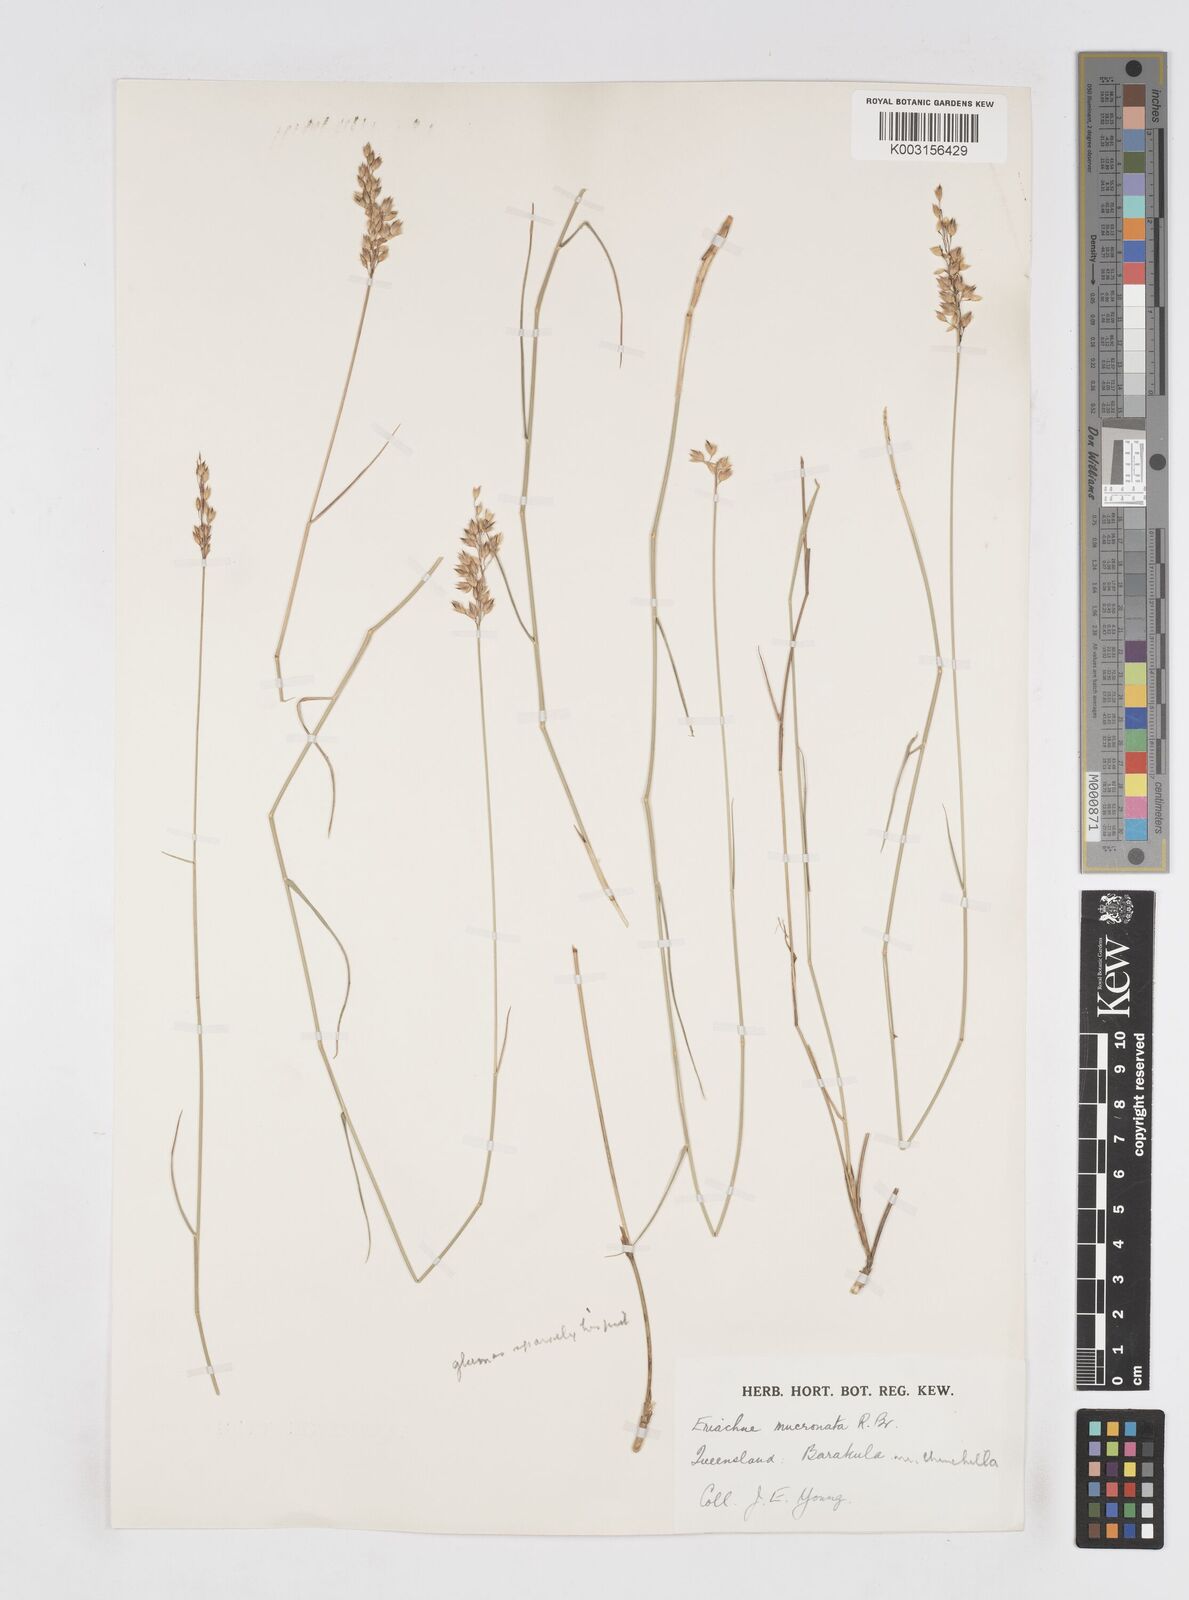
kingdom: Plantae
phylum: Tracheophyta
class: Liliopsida
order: Poales
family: Poaceae
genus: Eriachne
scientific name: Eriachne mucronata
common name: Mountain wanderrie grass
